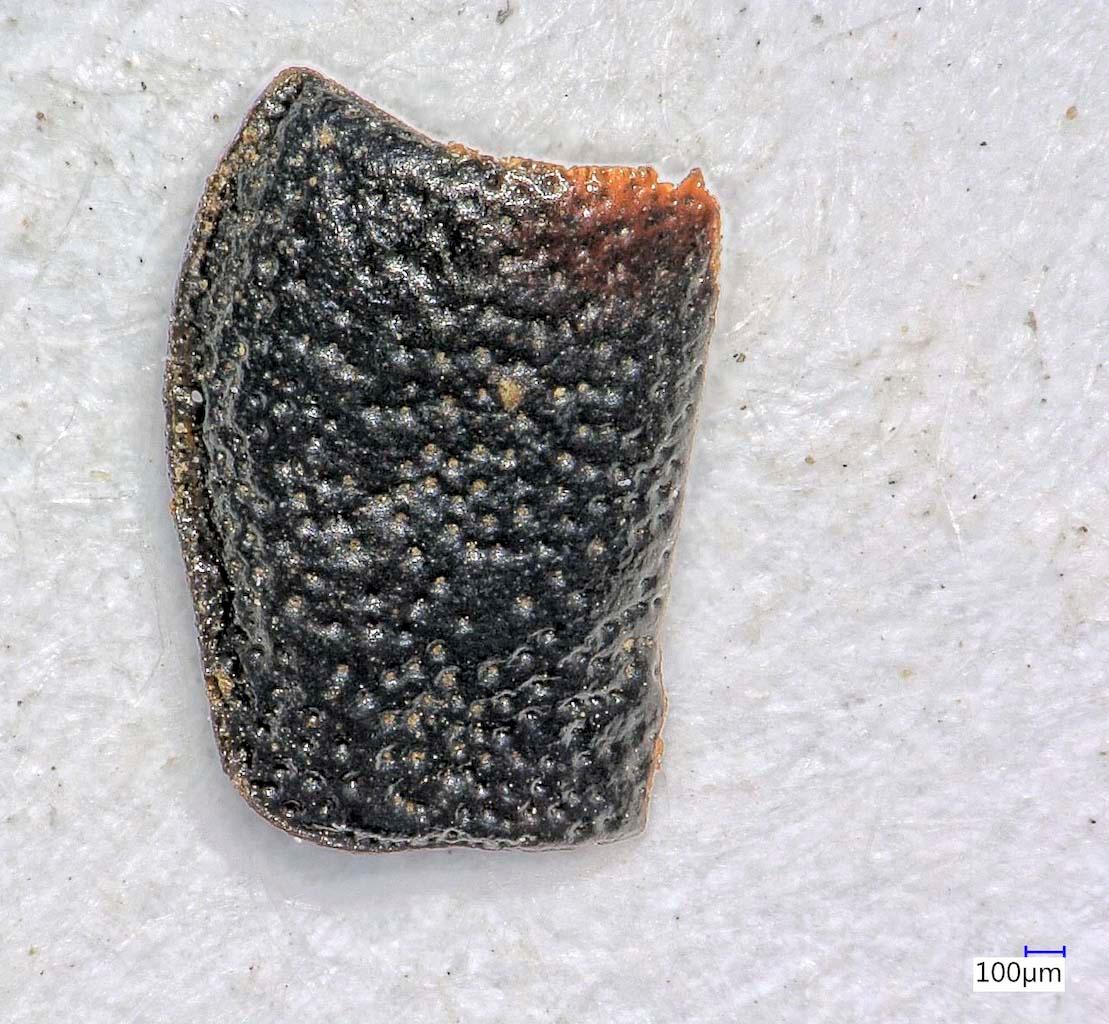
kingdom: Animalia
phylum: Arthropoda
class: Insecta
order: Coleoptera
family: Carabidae
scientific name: Carabidae
